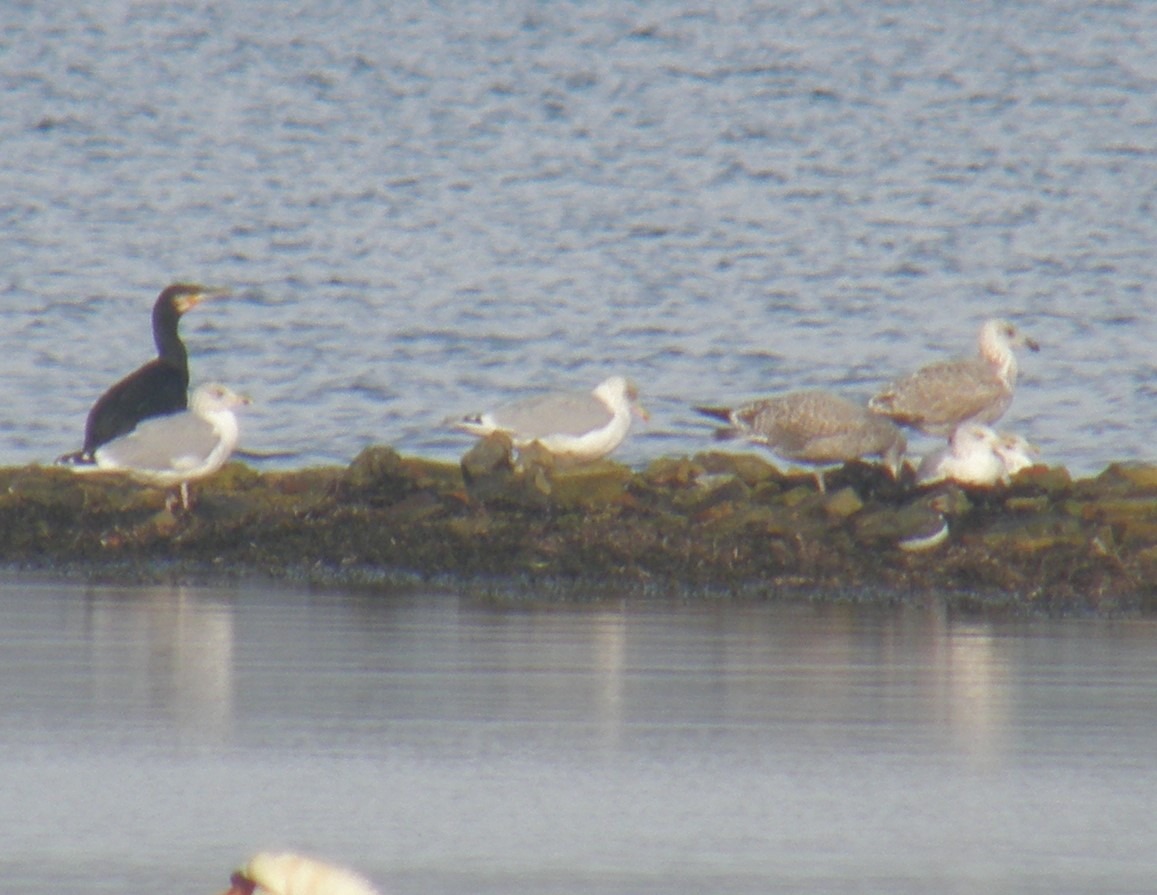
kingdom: Animalia
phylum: Chordata
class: Aves
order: Charadriiformes
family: Laridae
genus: Larus
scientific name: Larus argentatus
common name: Sølvmåge
